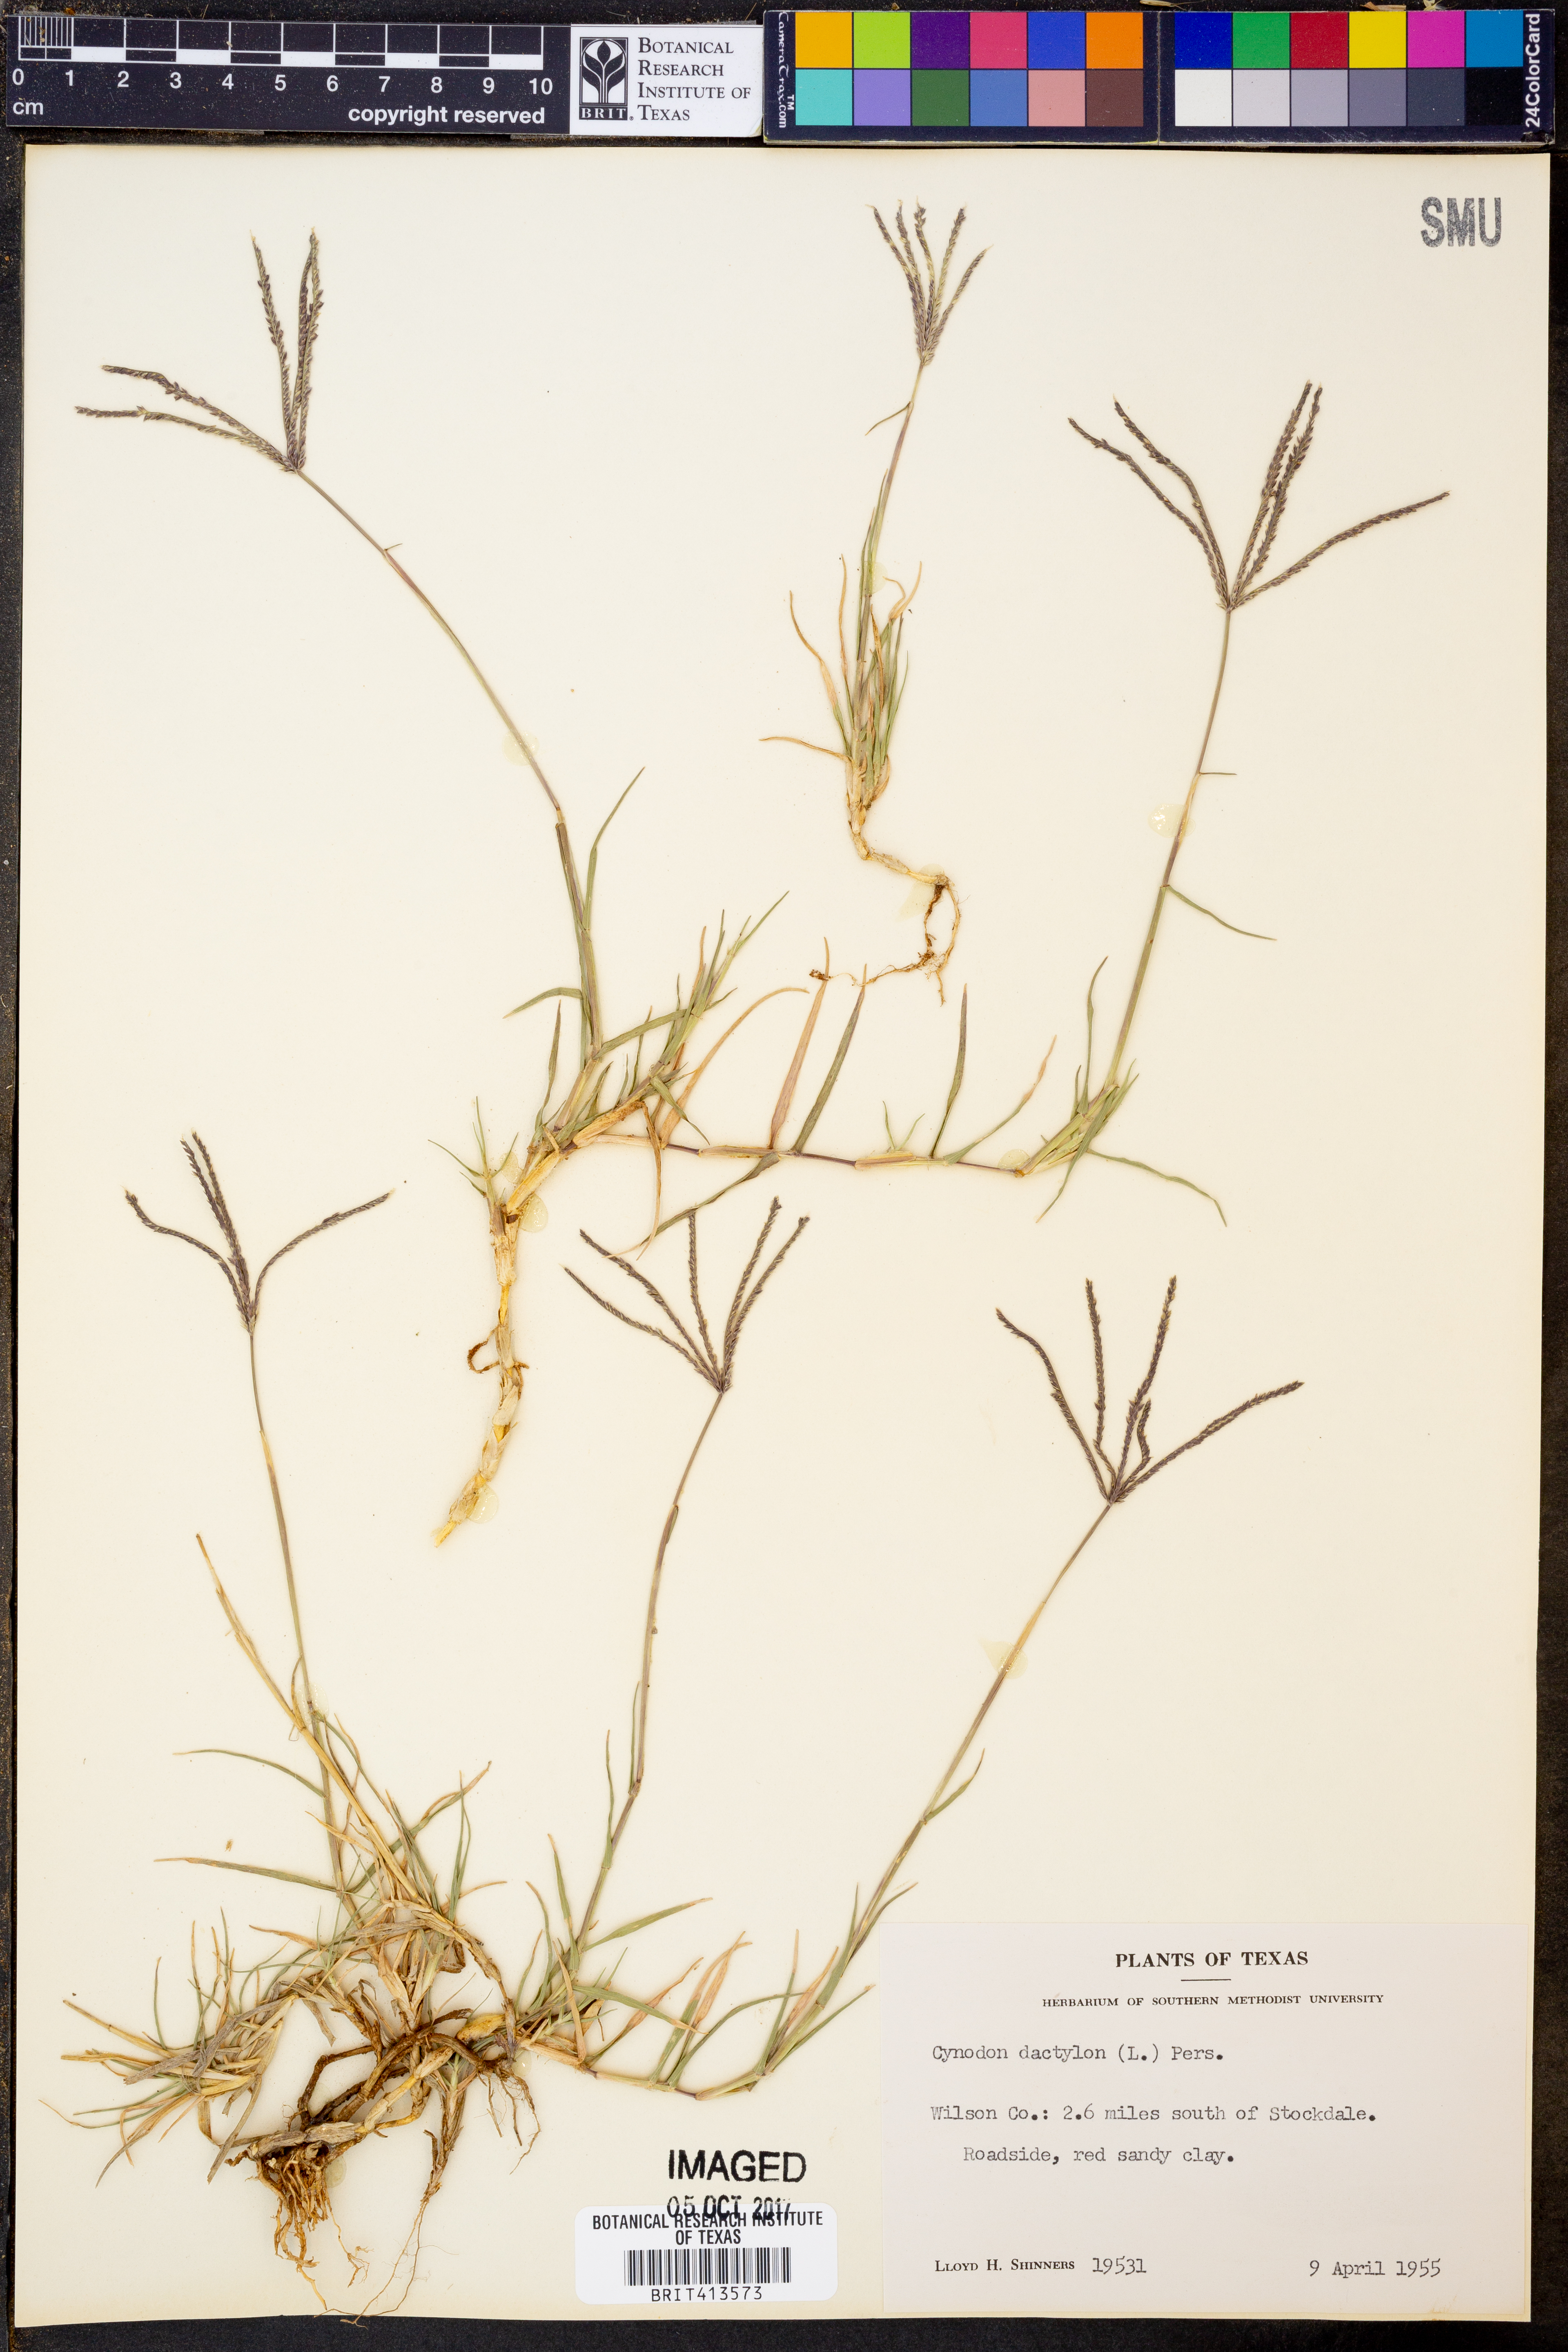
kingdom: Plantae
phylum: Tracheophyta
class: Liliopsida
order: Poales
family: Poaceae
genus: Cynodon
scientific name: Cynodon dactylon
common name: Bermuda grass
